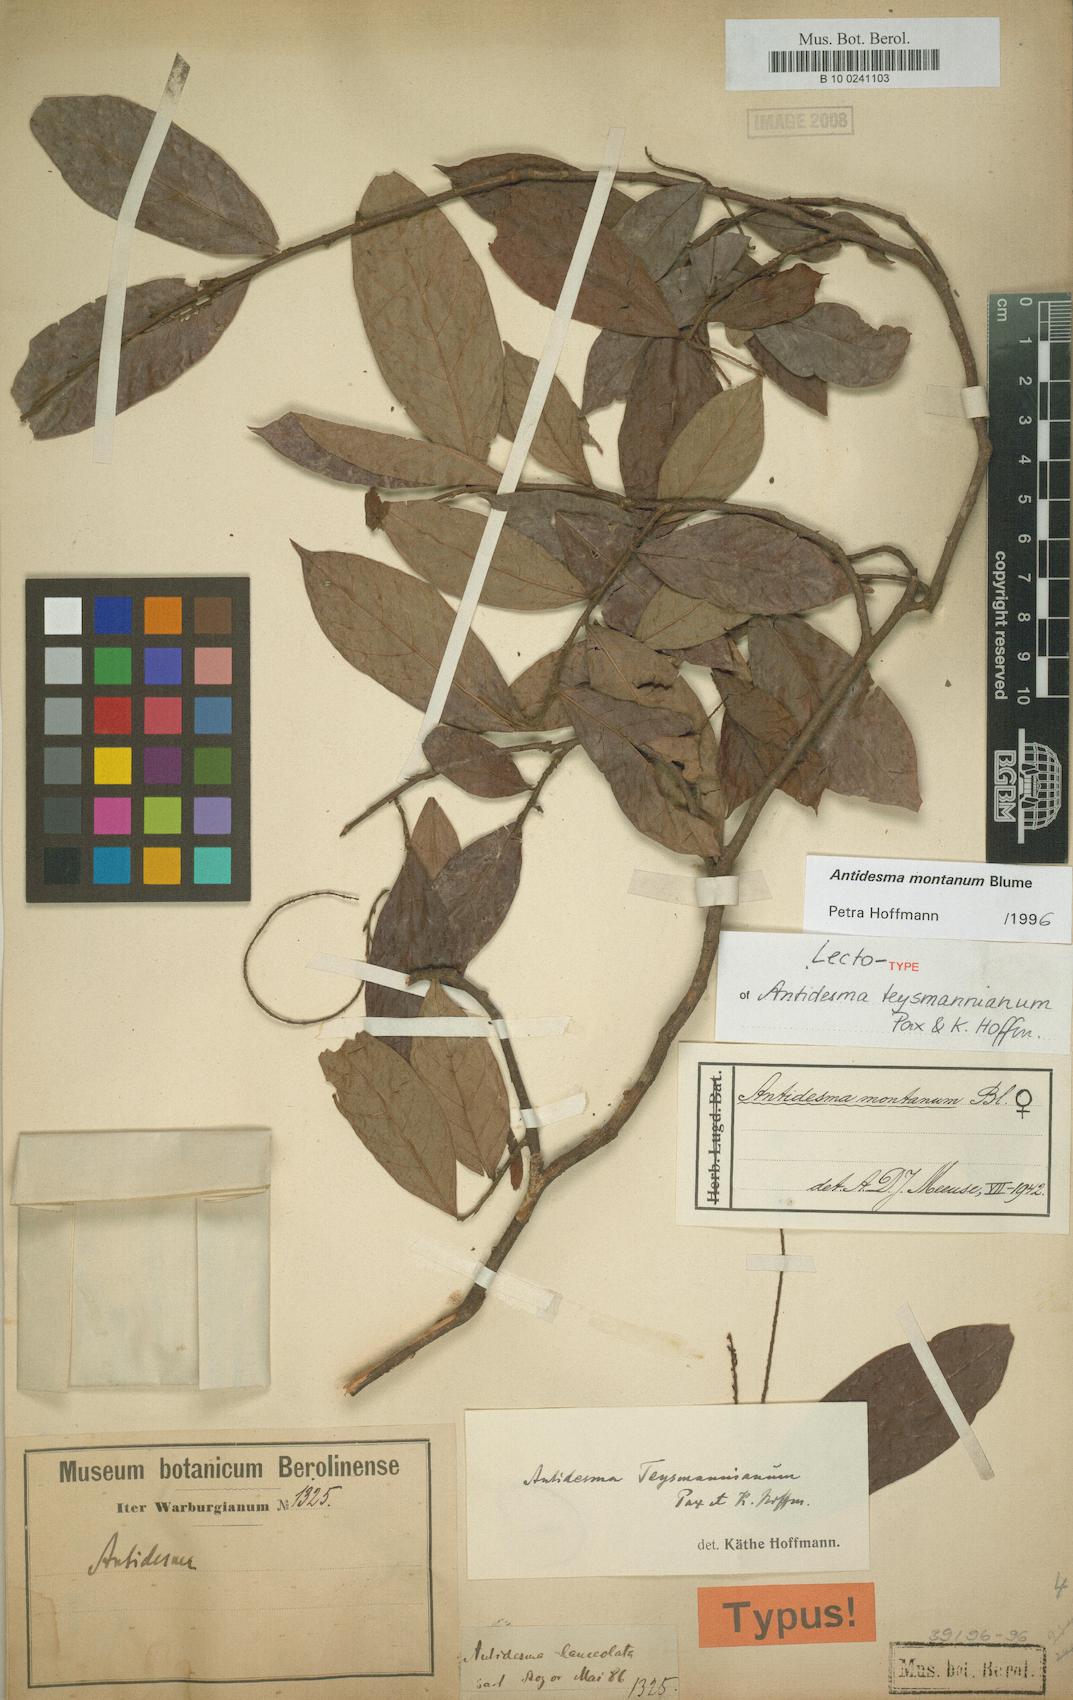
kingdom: Plantae
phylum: Tracheophyta
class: Magnoliopsida
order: Malpighiales
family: Phyllanthaceae
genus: Antidesma
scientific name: Antidesma montanum
